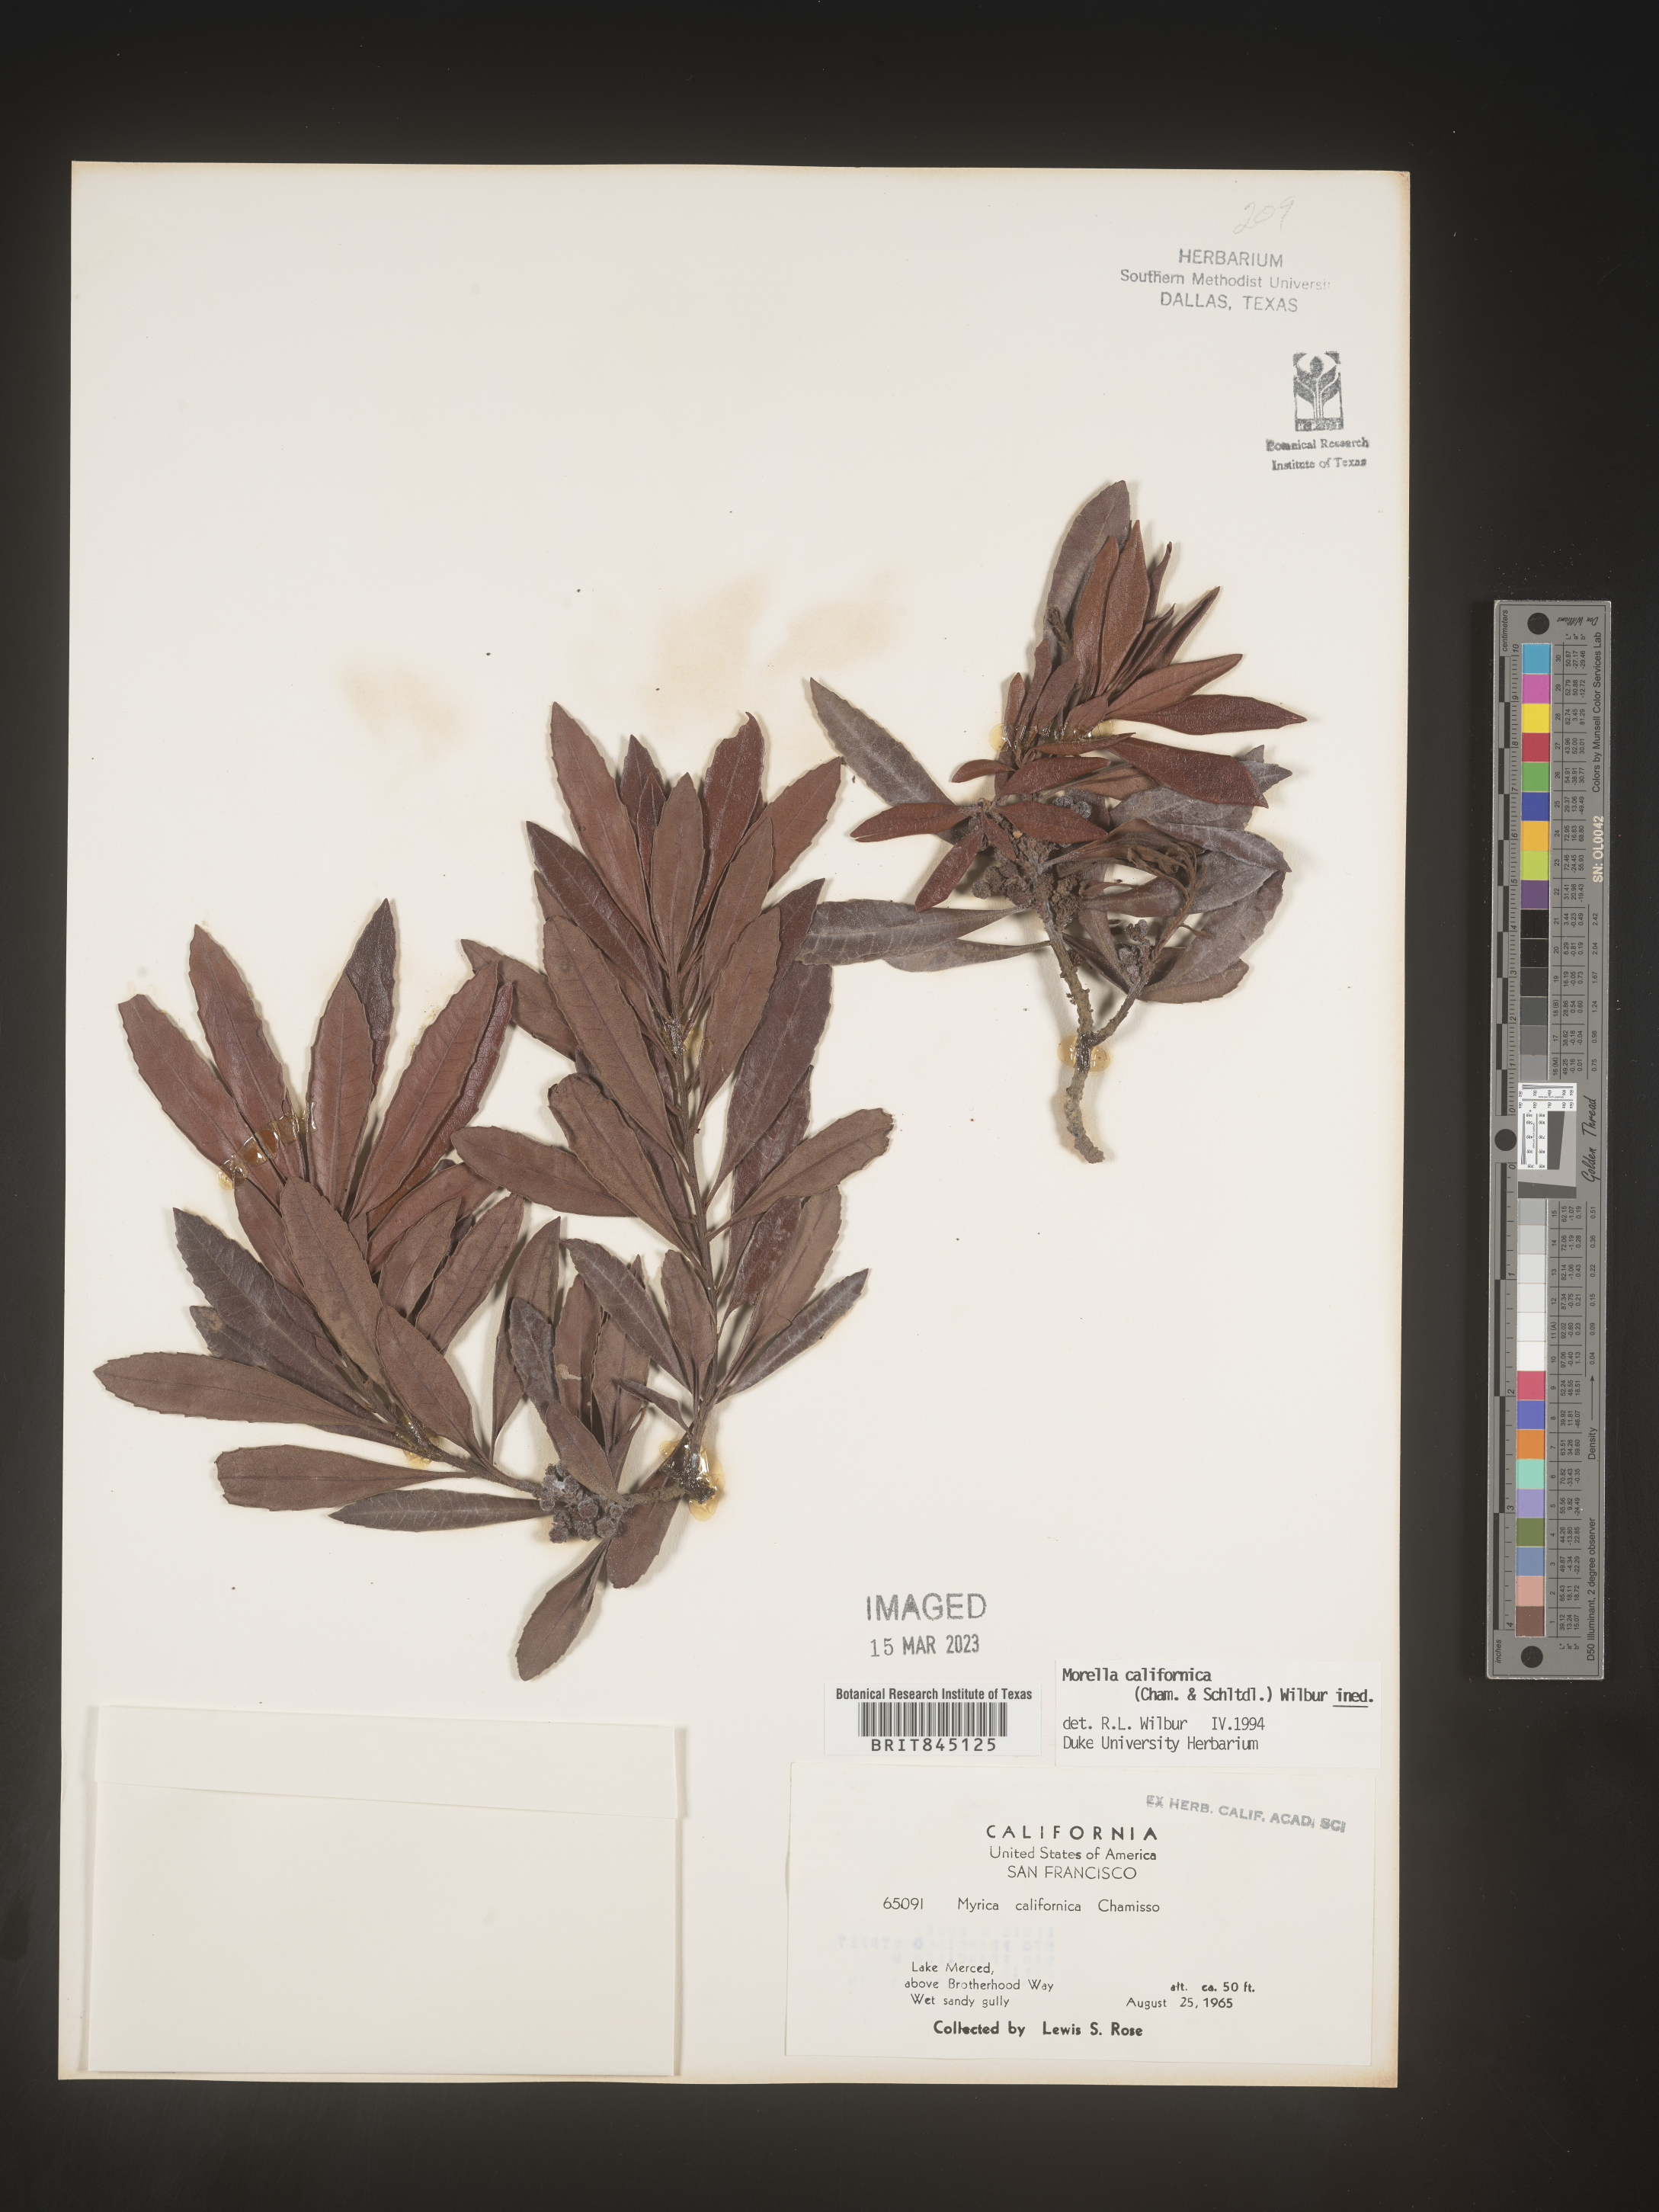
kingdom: Plantae
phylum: Tracheophyta
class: Magnoliopsida
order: Fagales
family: Myricaceae
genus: Morella
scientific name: Morella californica
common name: California wax-myrtle
